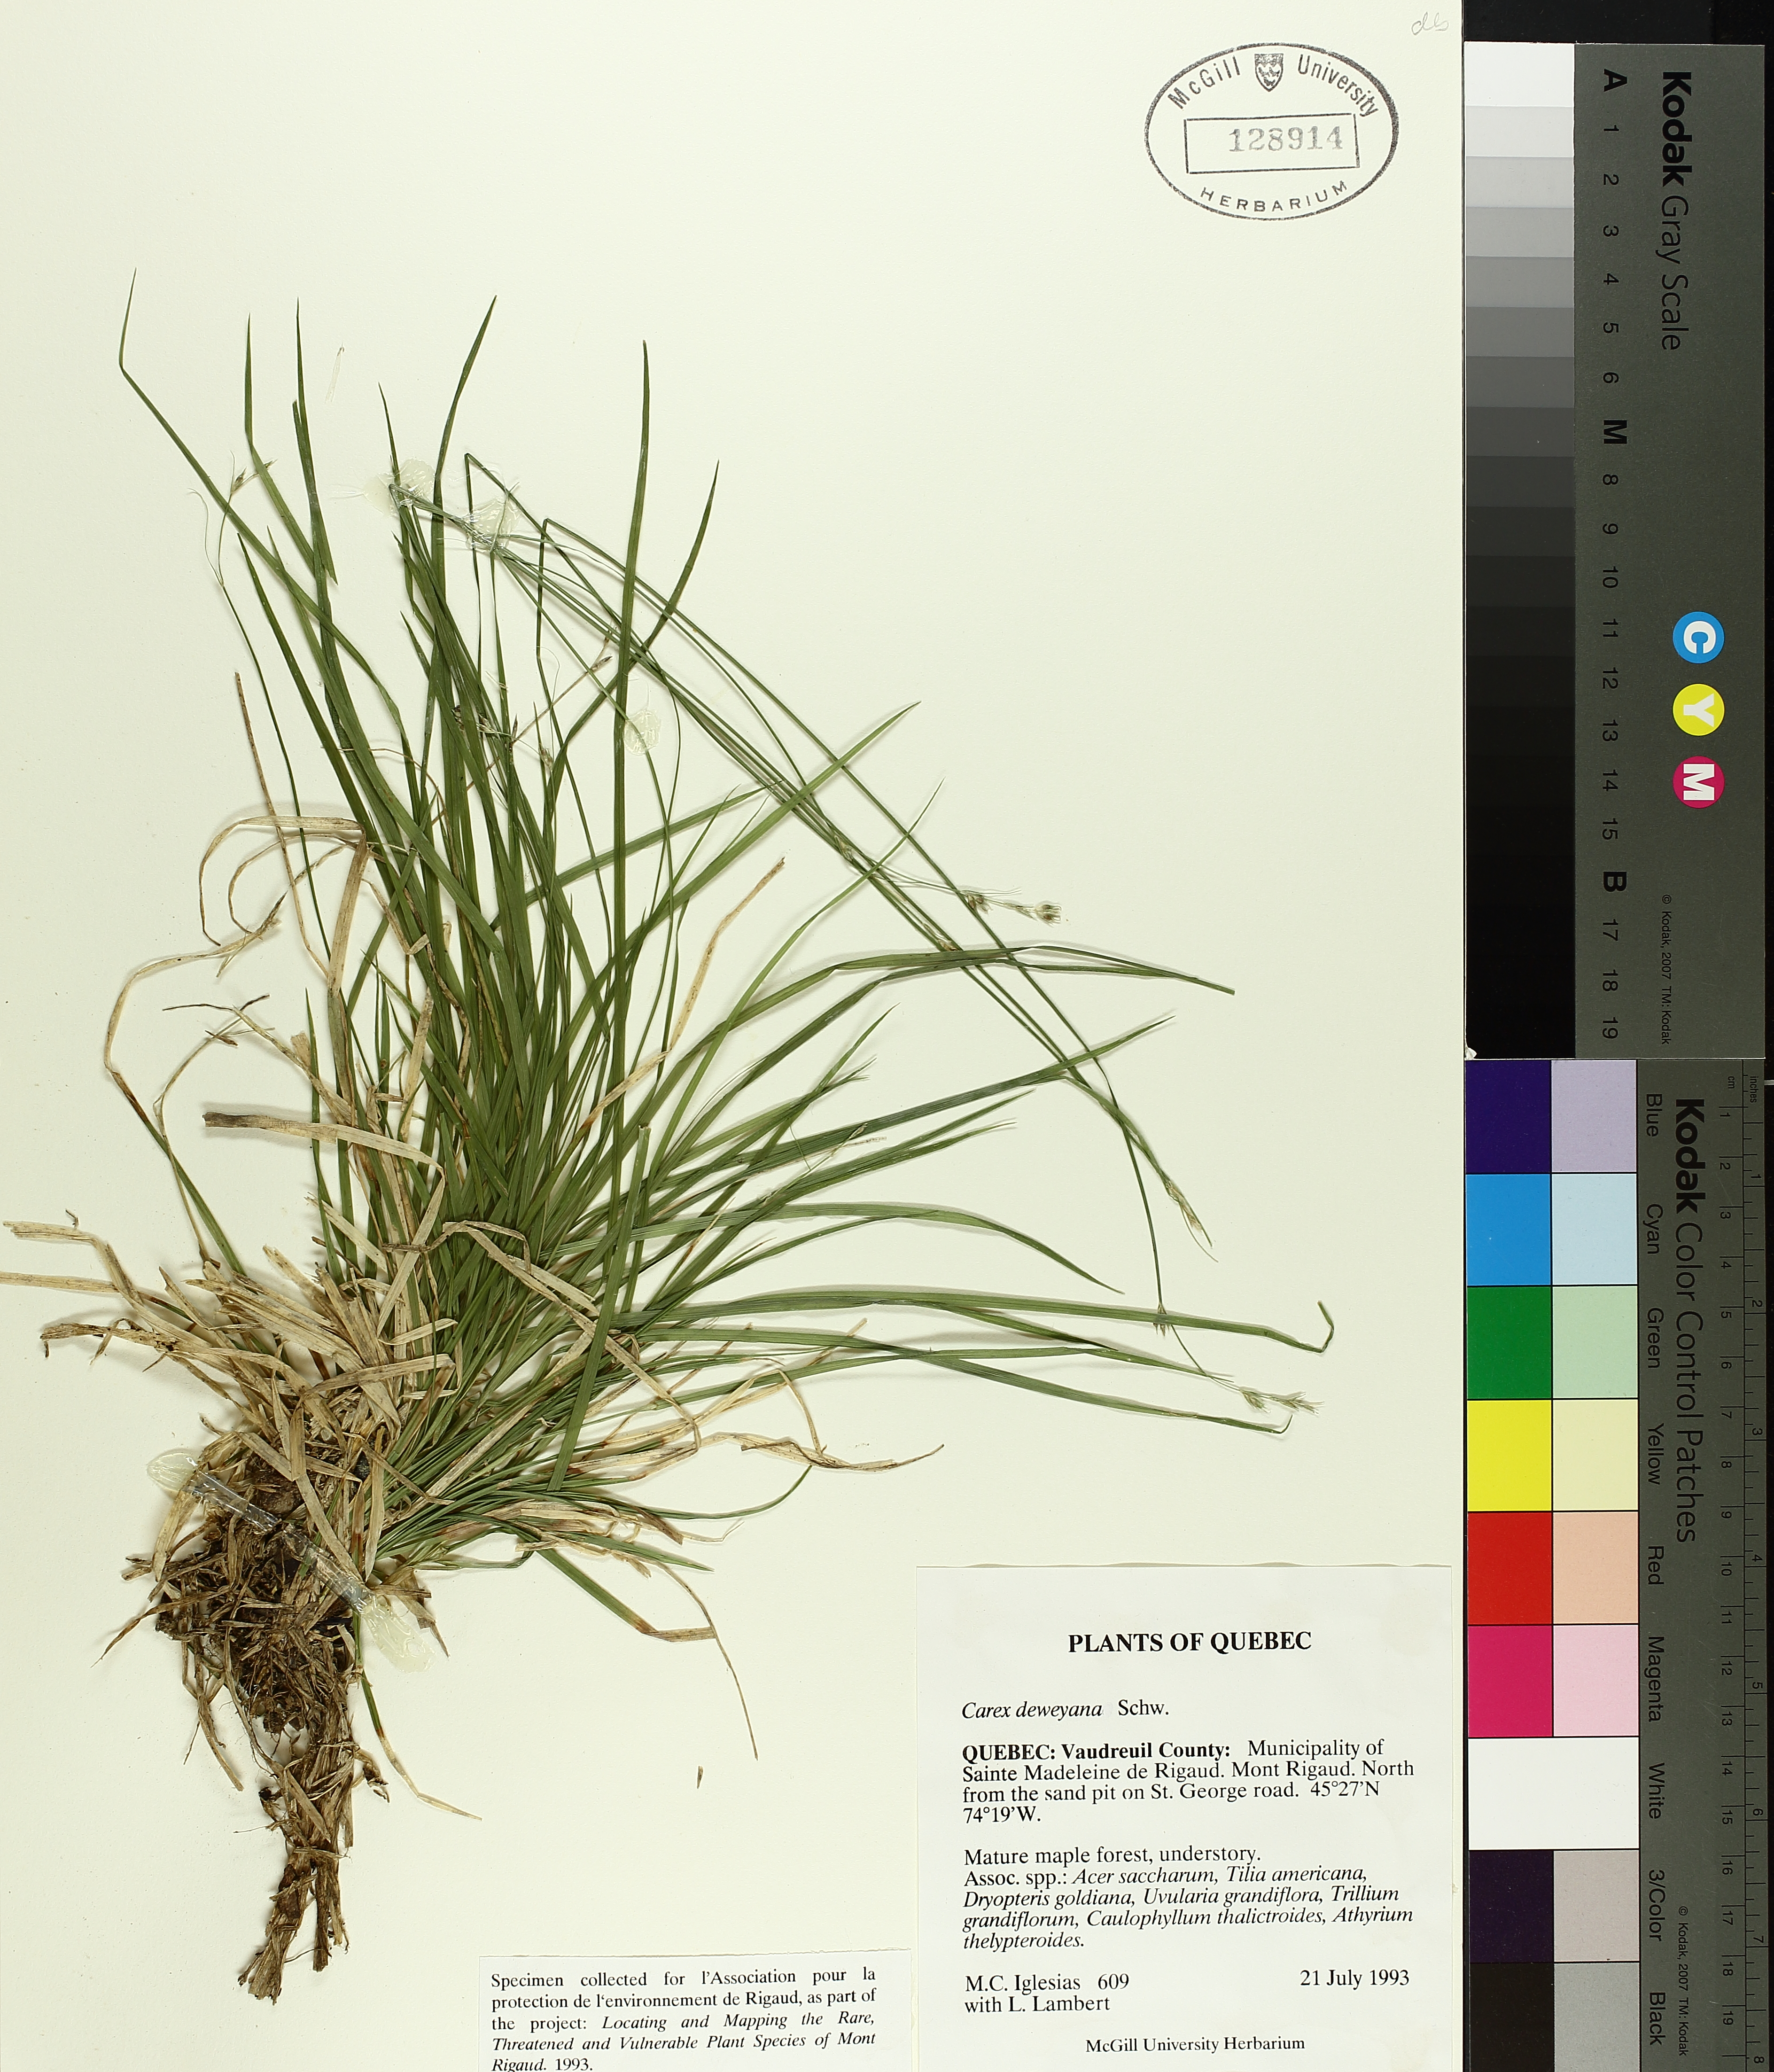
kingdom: Plantae
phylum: Tracheophyta
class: Liliopsida
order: Poales
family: Cyperaceae
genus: Carex
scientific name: Carex deweyana
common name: Dewey's sedge
